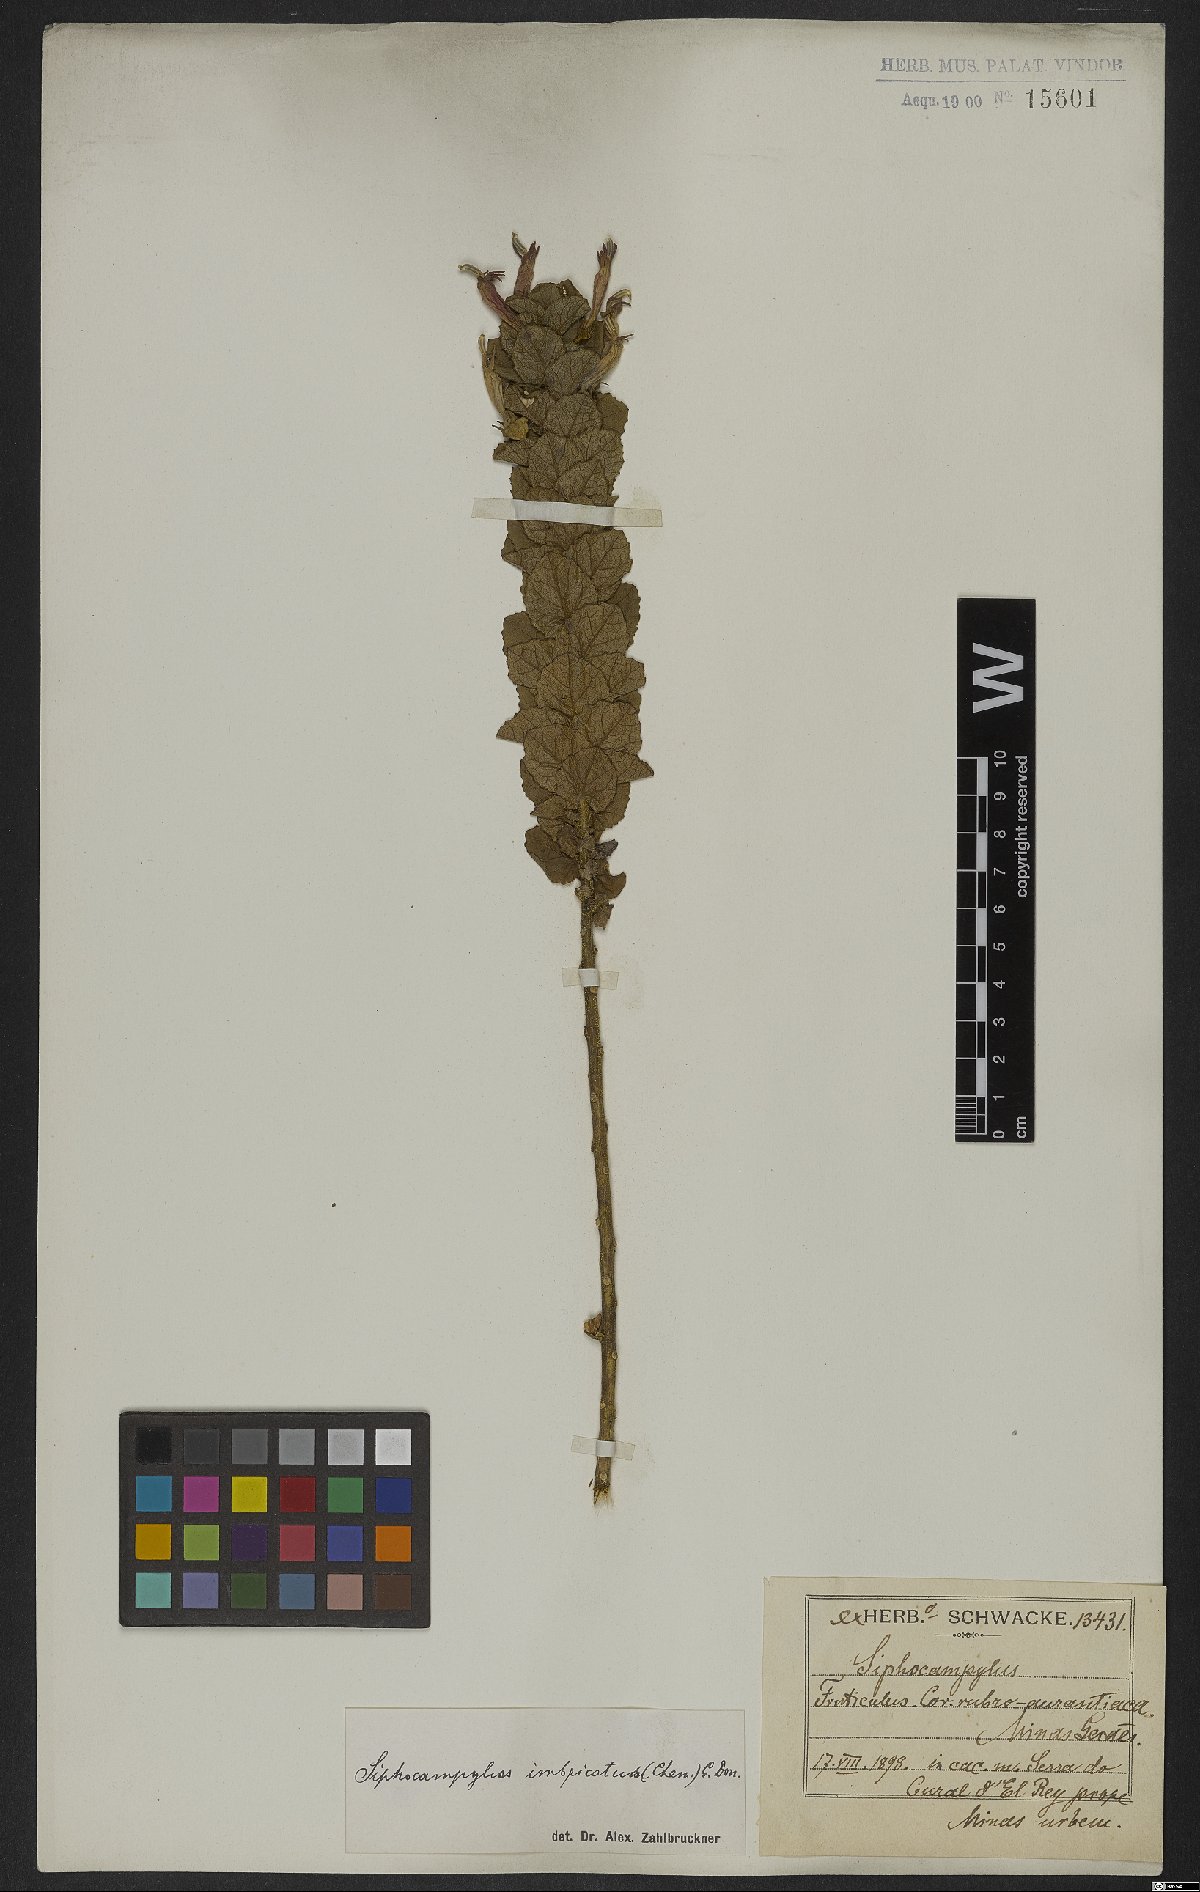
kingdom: Plantae
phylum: Tracheophyta
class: Magnoliopsida
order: Asterales
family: Campanulaceae
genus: Siphocampylus
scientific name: Siphocampylus imbricatus
